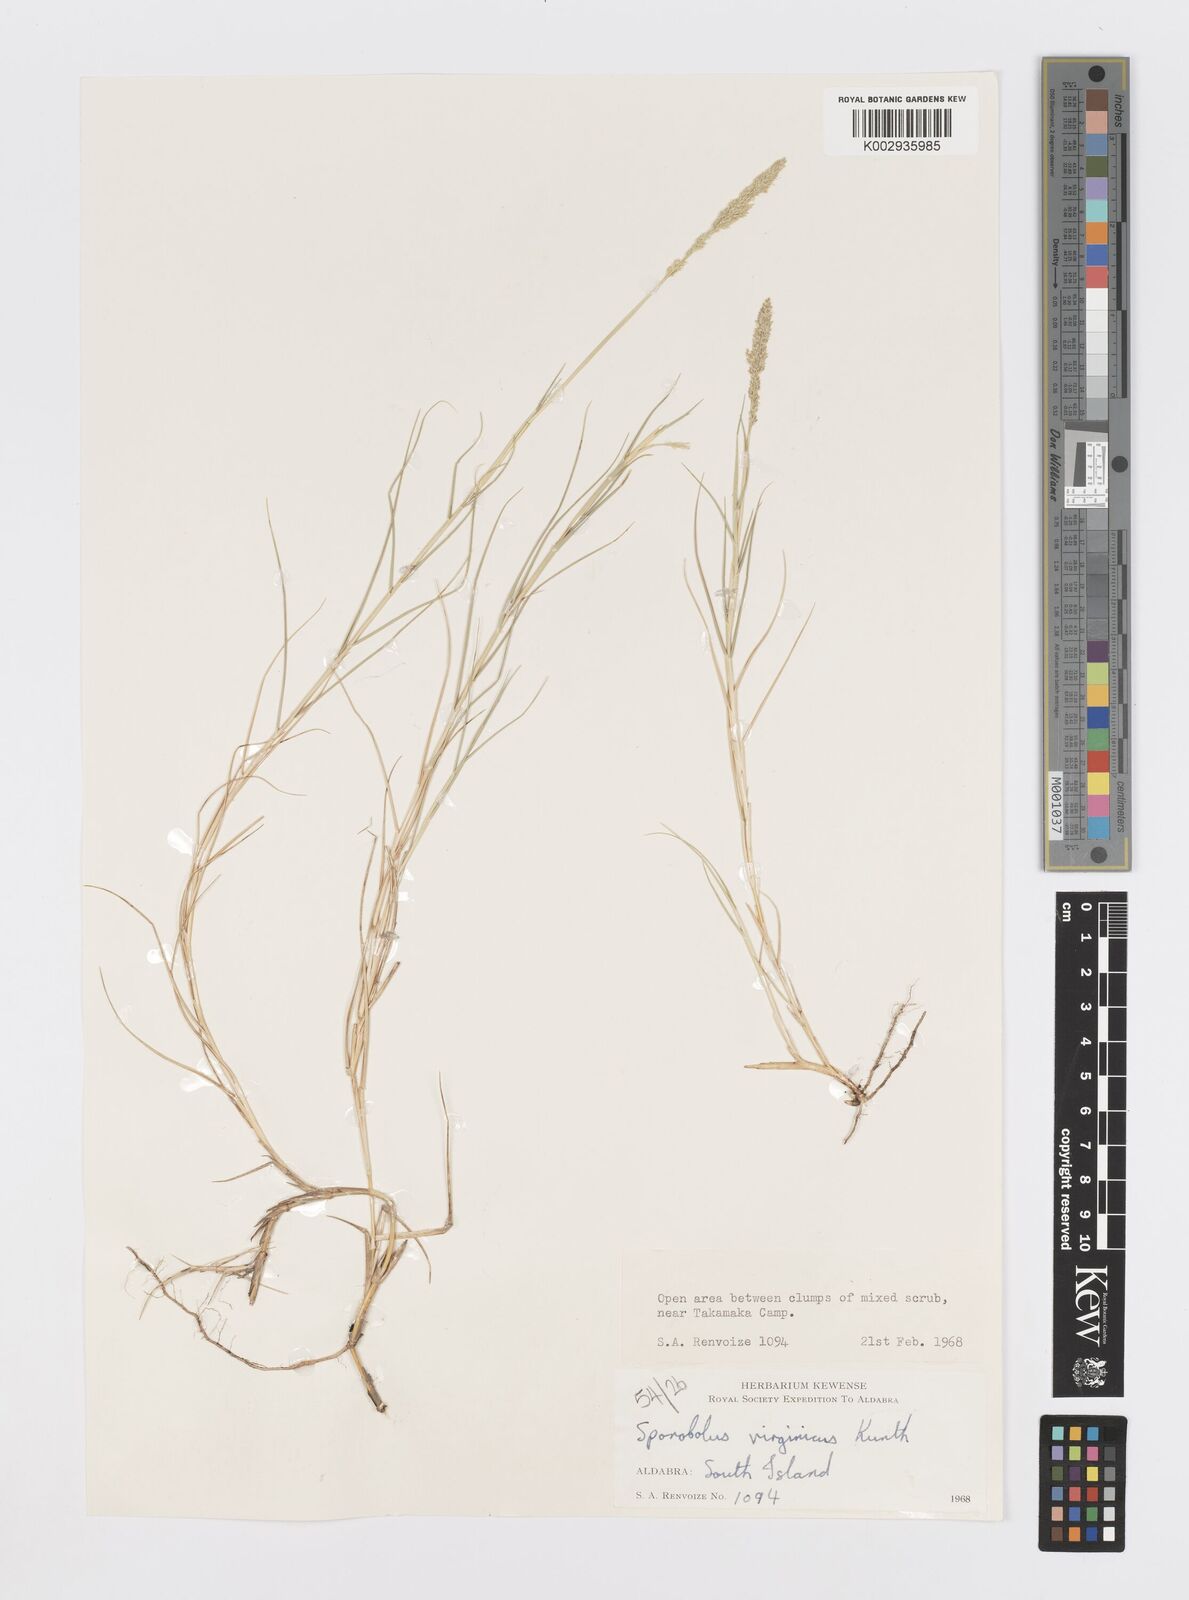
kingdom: Plantae
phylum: Tracheophyta
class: Liliopsida
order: Poales
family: Poaceae
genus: Sporobolus
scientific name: Sporobolus virginicus
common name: Beach dropseed
